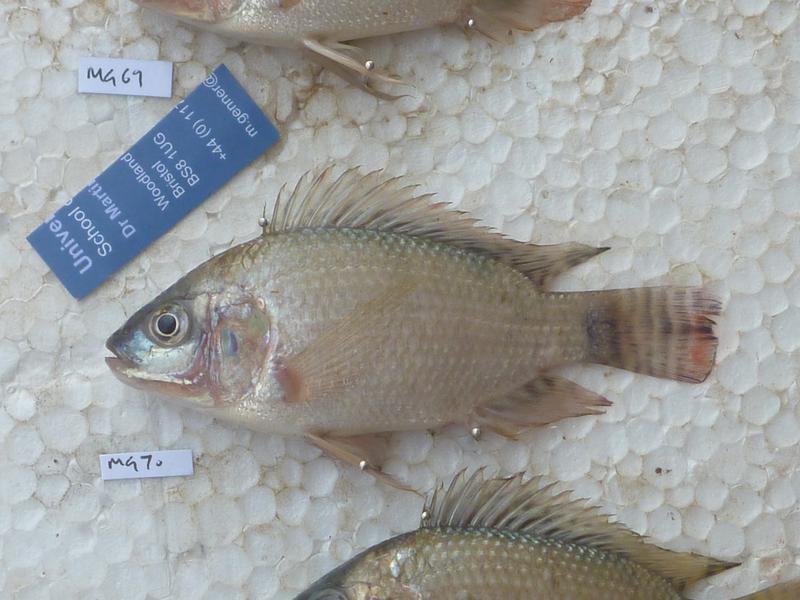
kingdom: Animalia
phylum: Chordata
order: Perciformes
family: Cichlidae
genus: Oreochromis
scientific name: Oreochromis niloticus
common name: Nile tilapia
